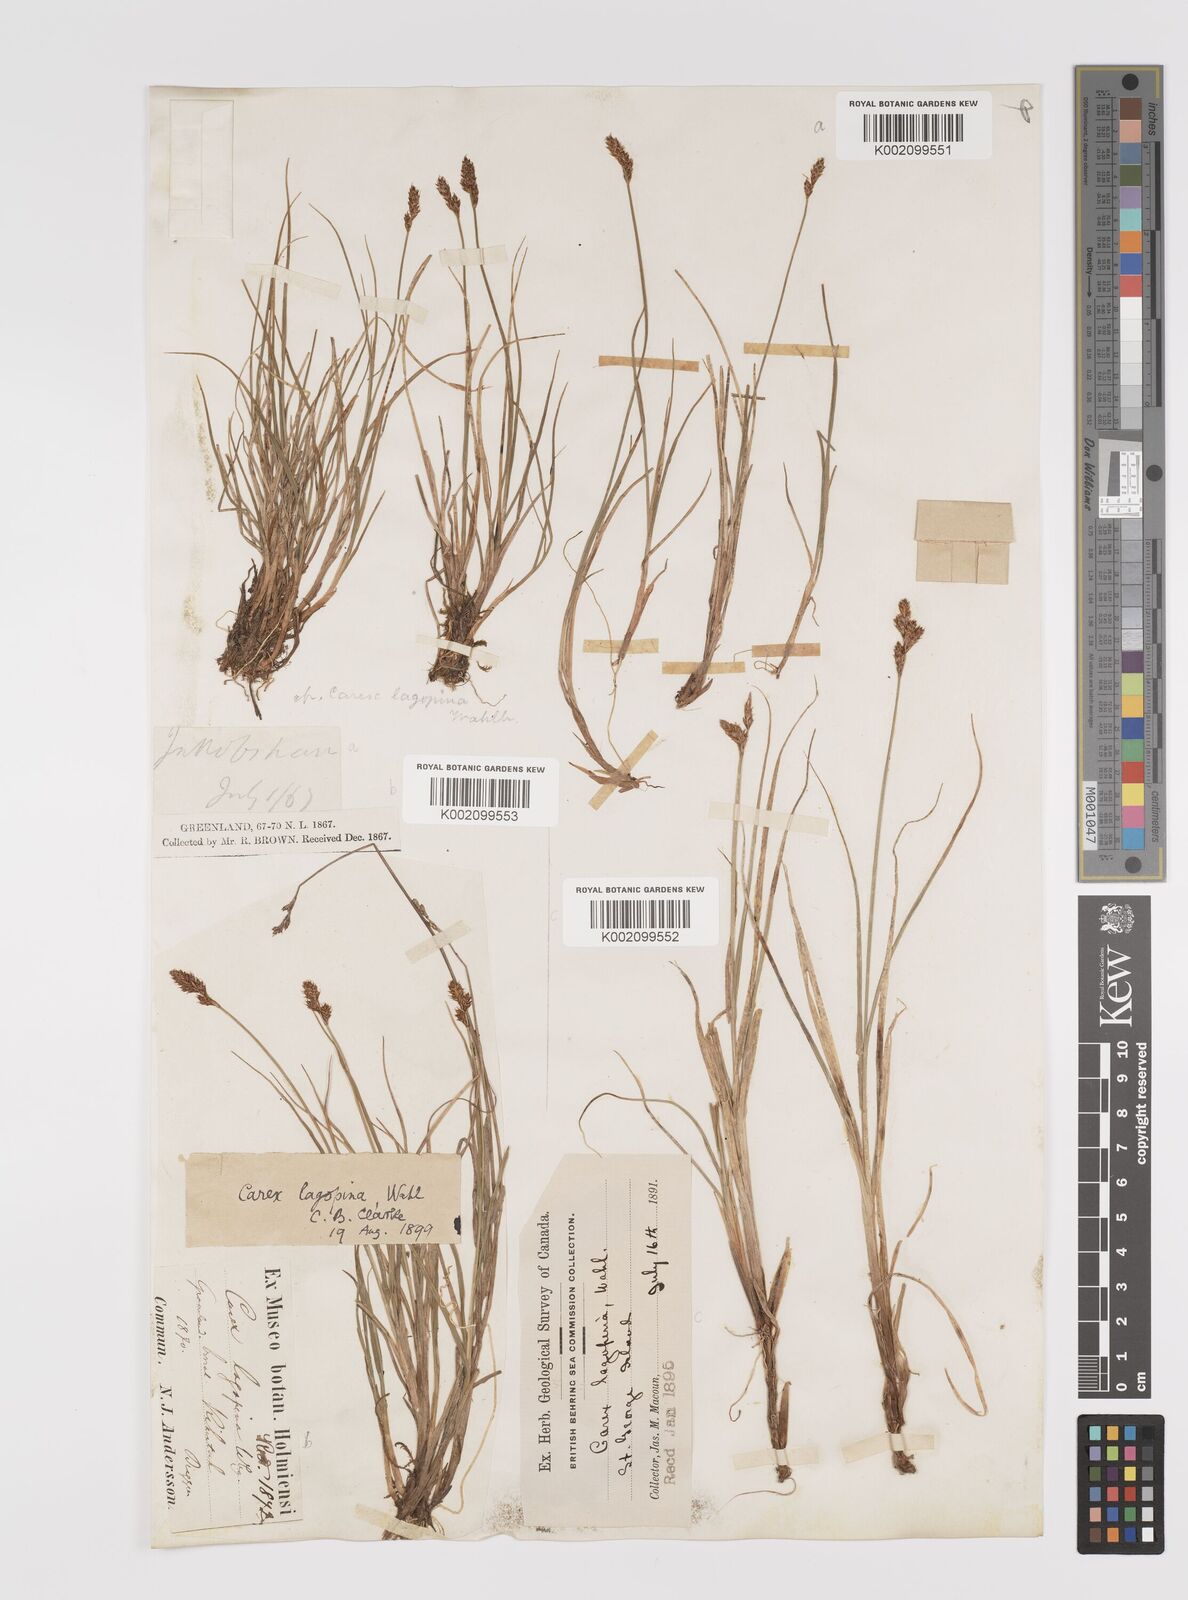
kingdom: Plantae
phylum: Tracheophyta
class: Liliopsida
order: Poales
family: Cyperaceae
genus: Carex
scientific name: Carex lachenalii
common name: Hare's-foot sedge
